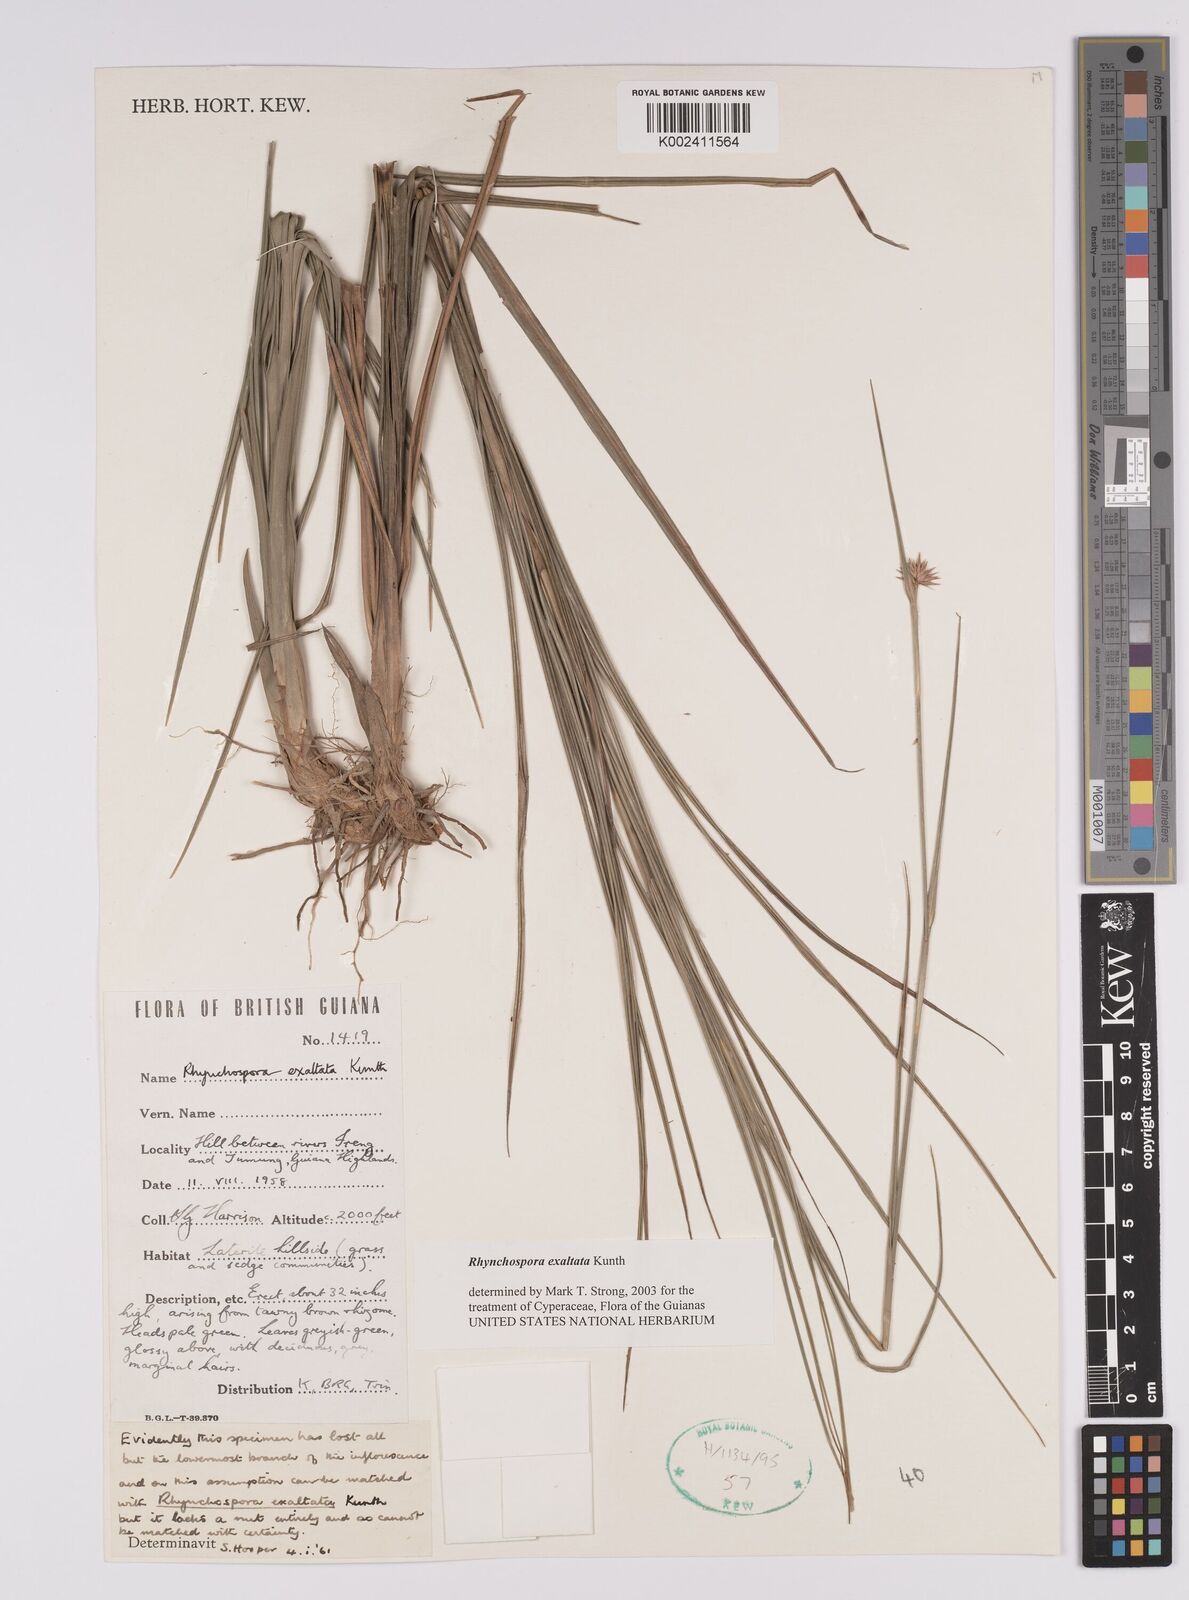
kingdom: Plantae
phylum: Tracheophyta
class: Liliopsida
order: Poales
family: Cyperaceae
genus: Rhynchospora
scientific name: Rhynchospora exaltata
